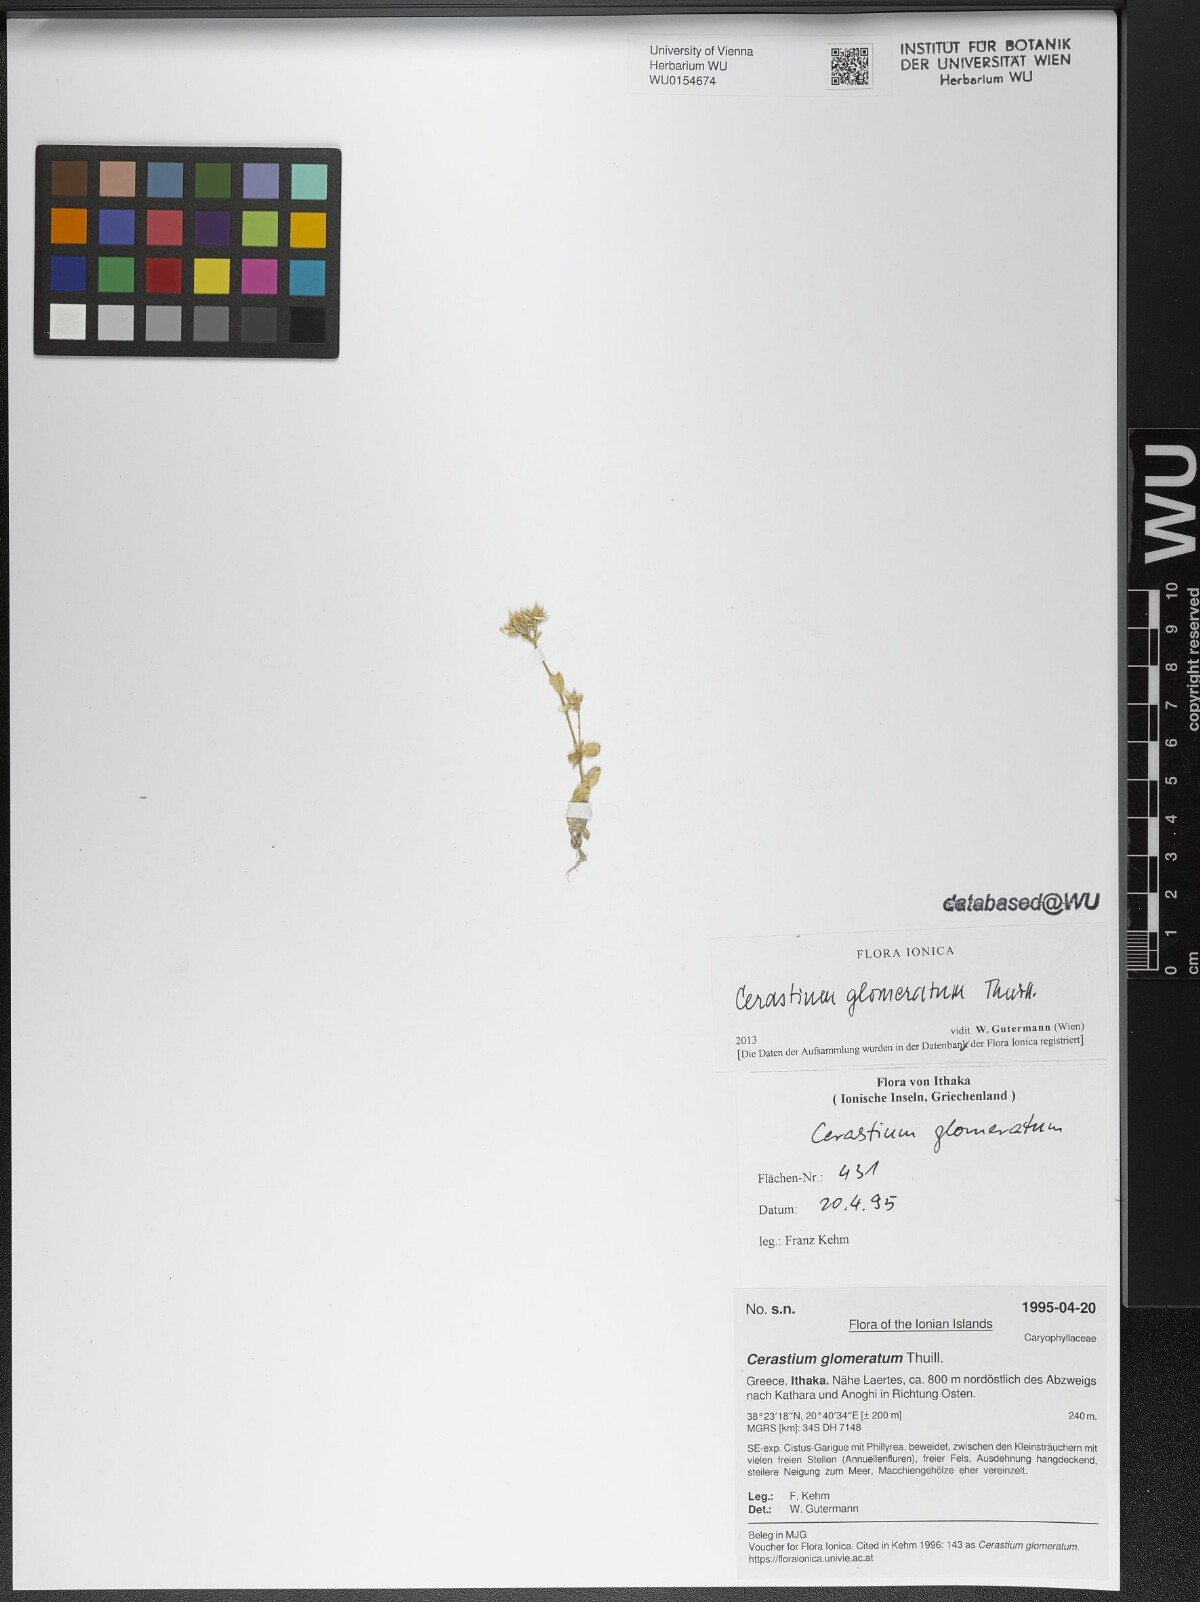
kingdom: Plantae
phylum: Tracheophyta
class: Magnoliopsida
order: Caryophyllales
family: Caryophyllaceae
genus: Cerastium
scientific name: Cerastium glomeratum
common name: Sticky chickweed
